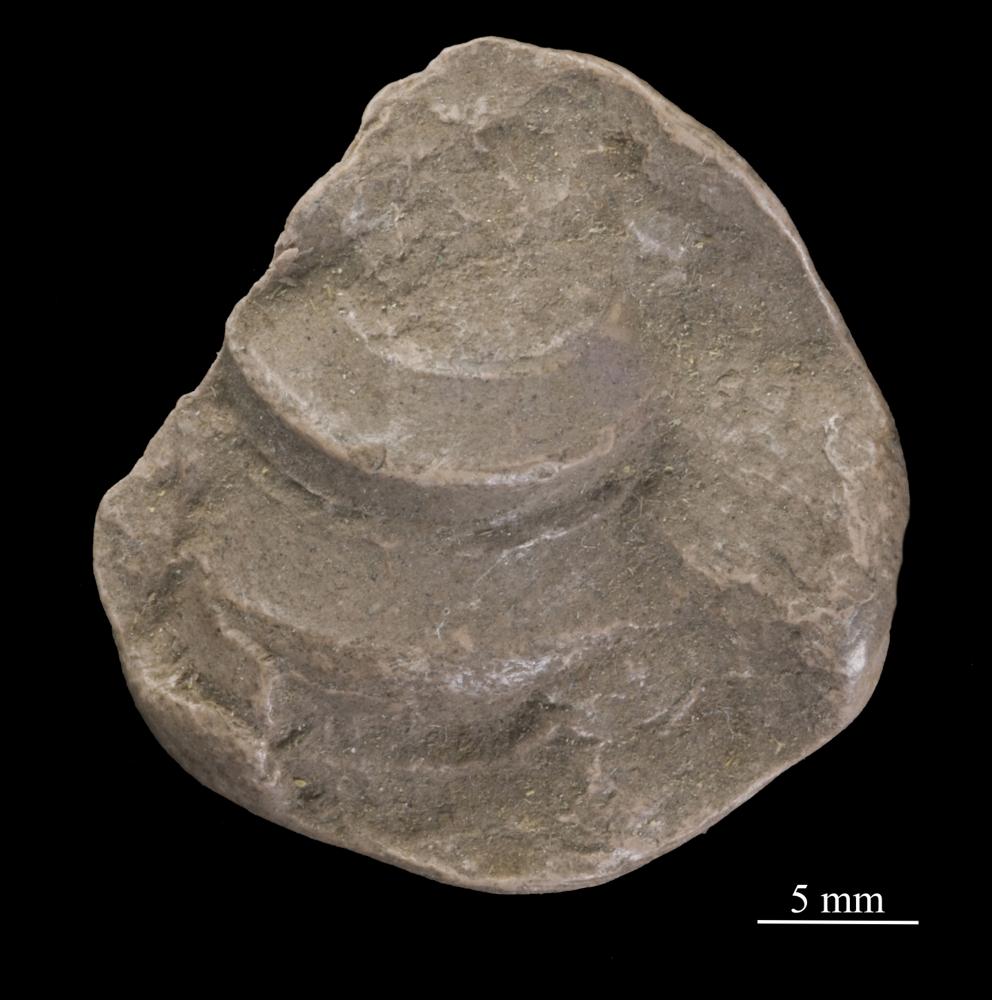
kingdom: Animalia
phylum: Mollusca
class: Gastropoda
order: Pleurotomariida
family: Phanerotrematidae
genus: Brachytomaria
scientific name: Brachytomaria Pleurotomaria baltica
